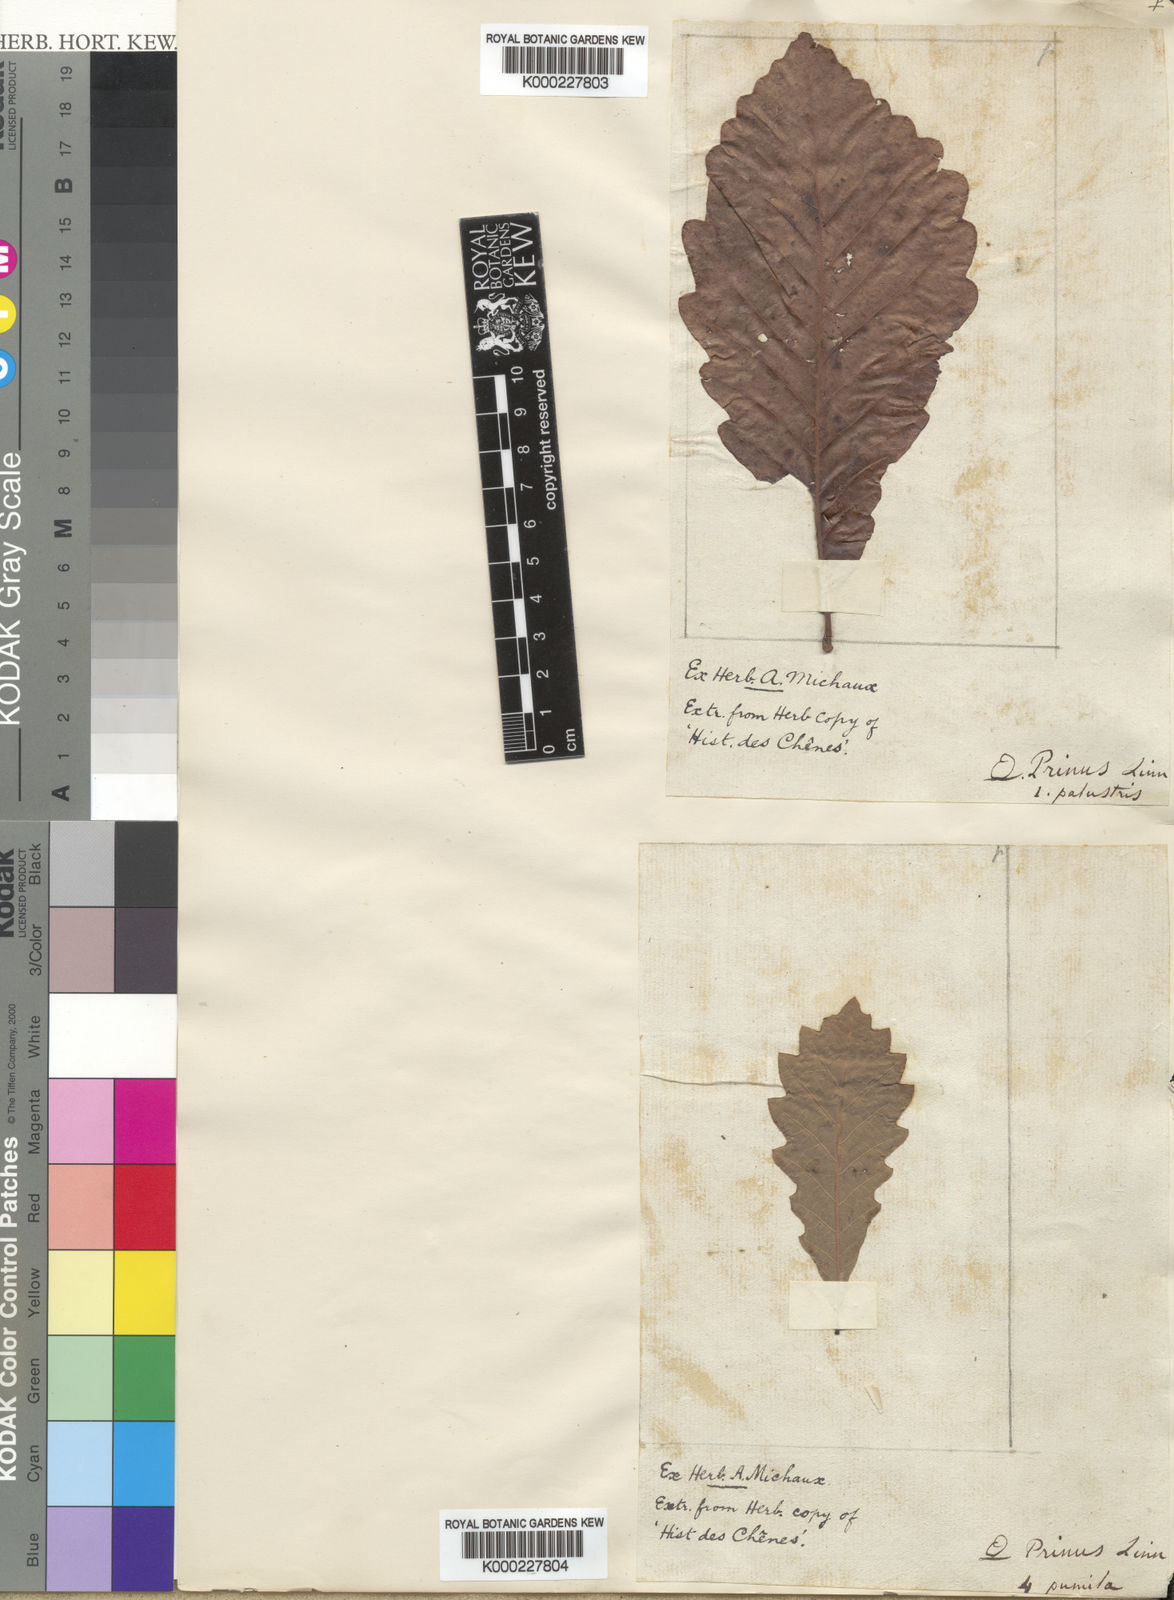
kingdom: Plantae
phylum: Tracheophyta
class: Magnoliopsida
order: Fagales
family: Fagaceae
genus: Quercus
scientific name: Quercus montana
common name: Chestnut oak
